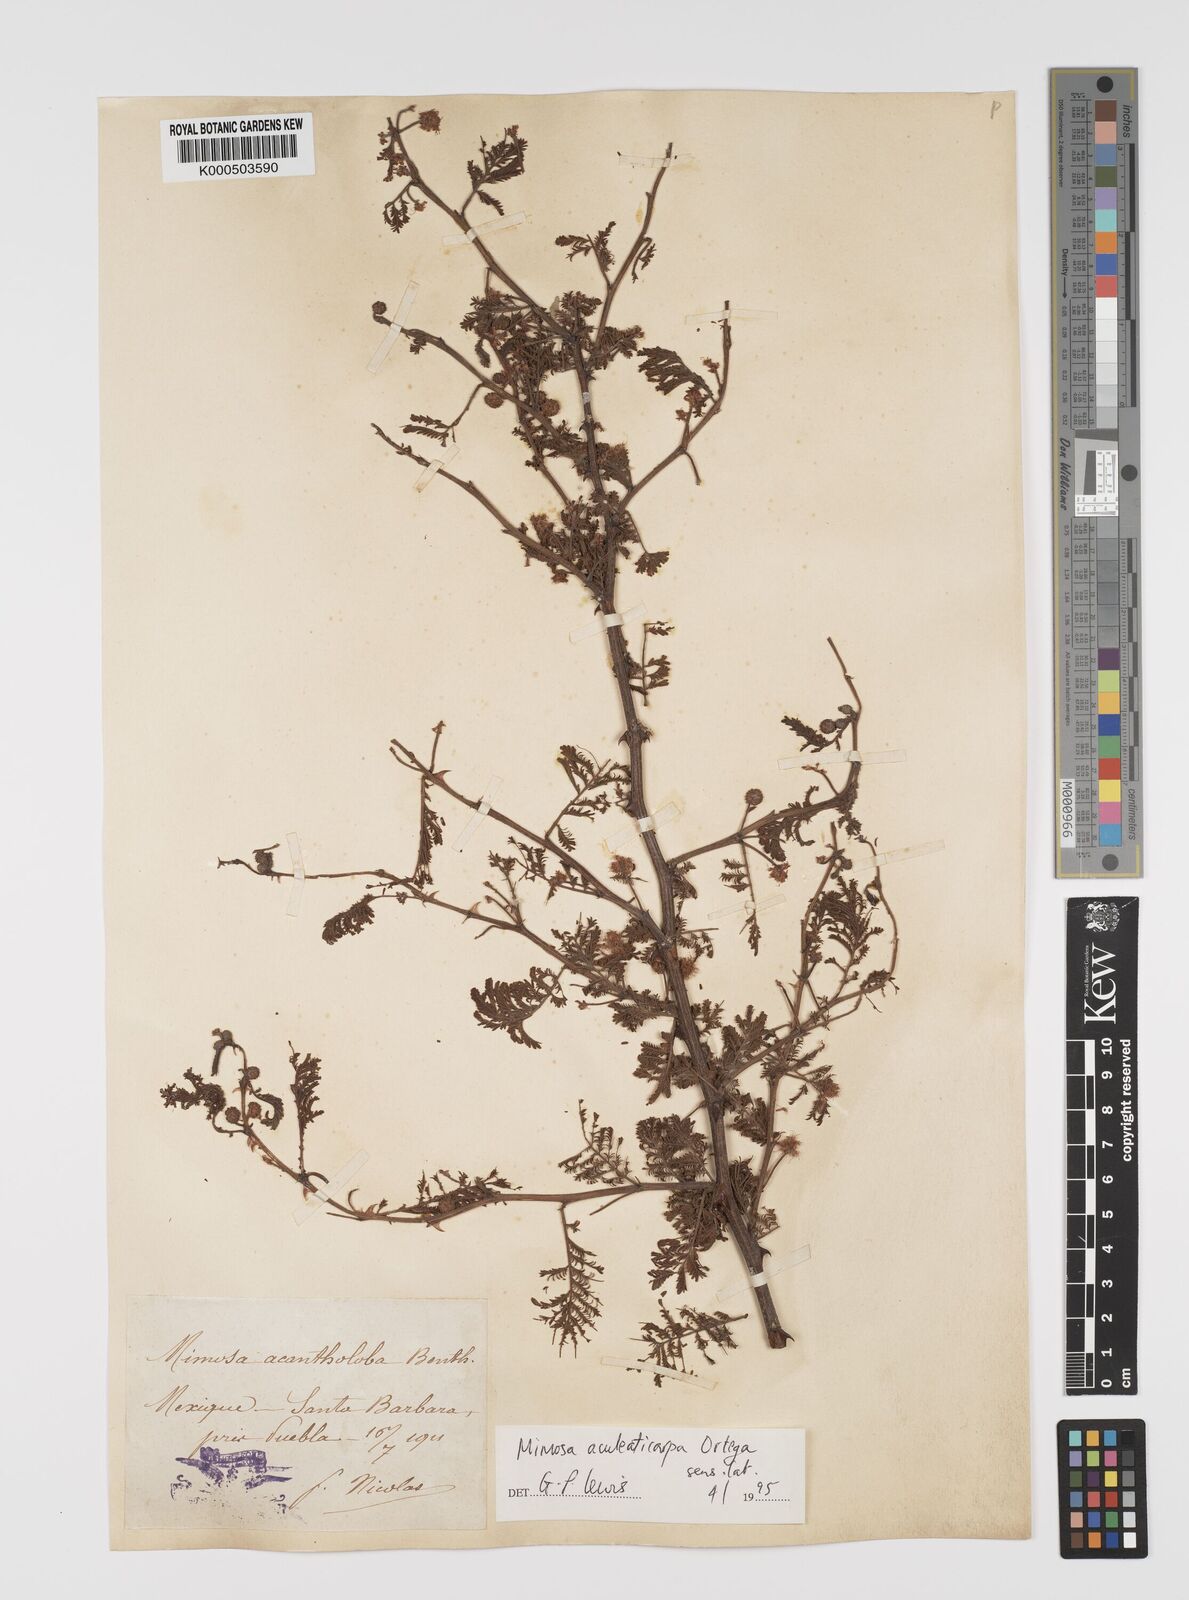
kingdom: Plantae
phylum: Tracheophyta
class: Magnoliopsida
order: Fabales
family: Fabaceae
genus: Mimosa
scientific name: Mimosa aculeaticarpa
